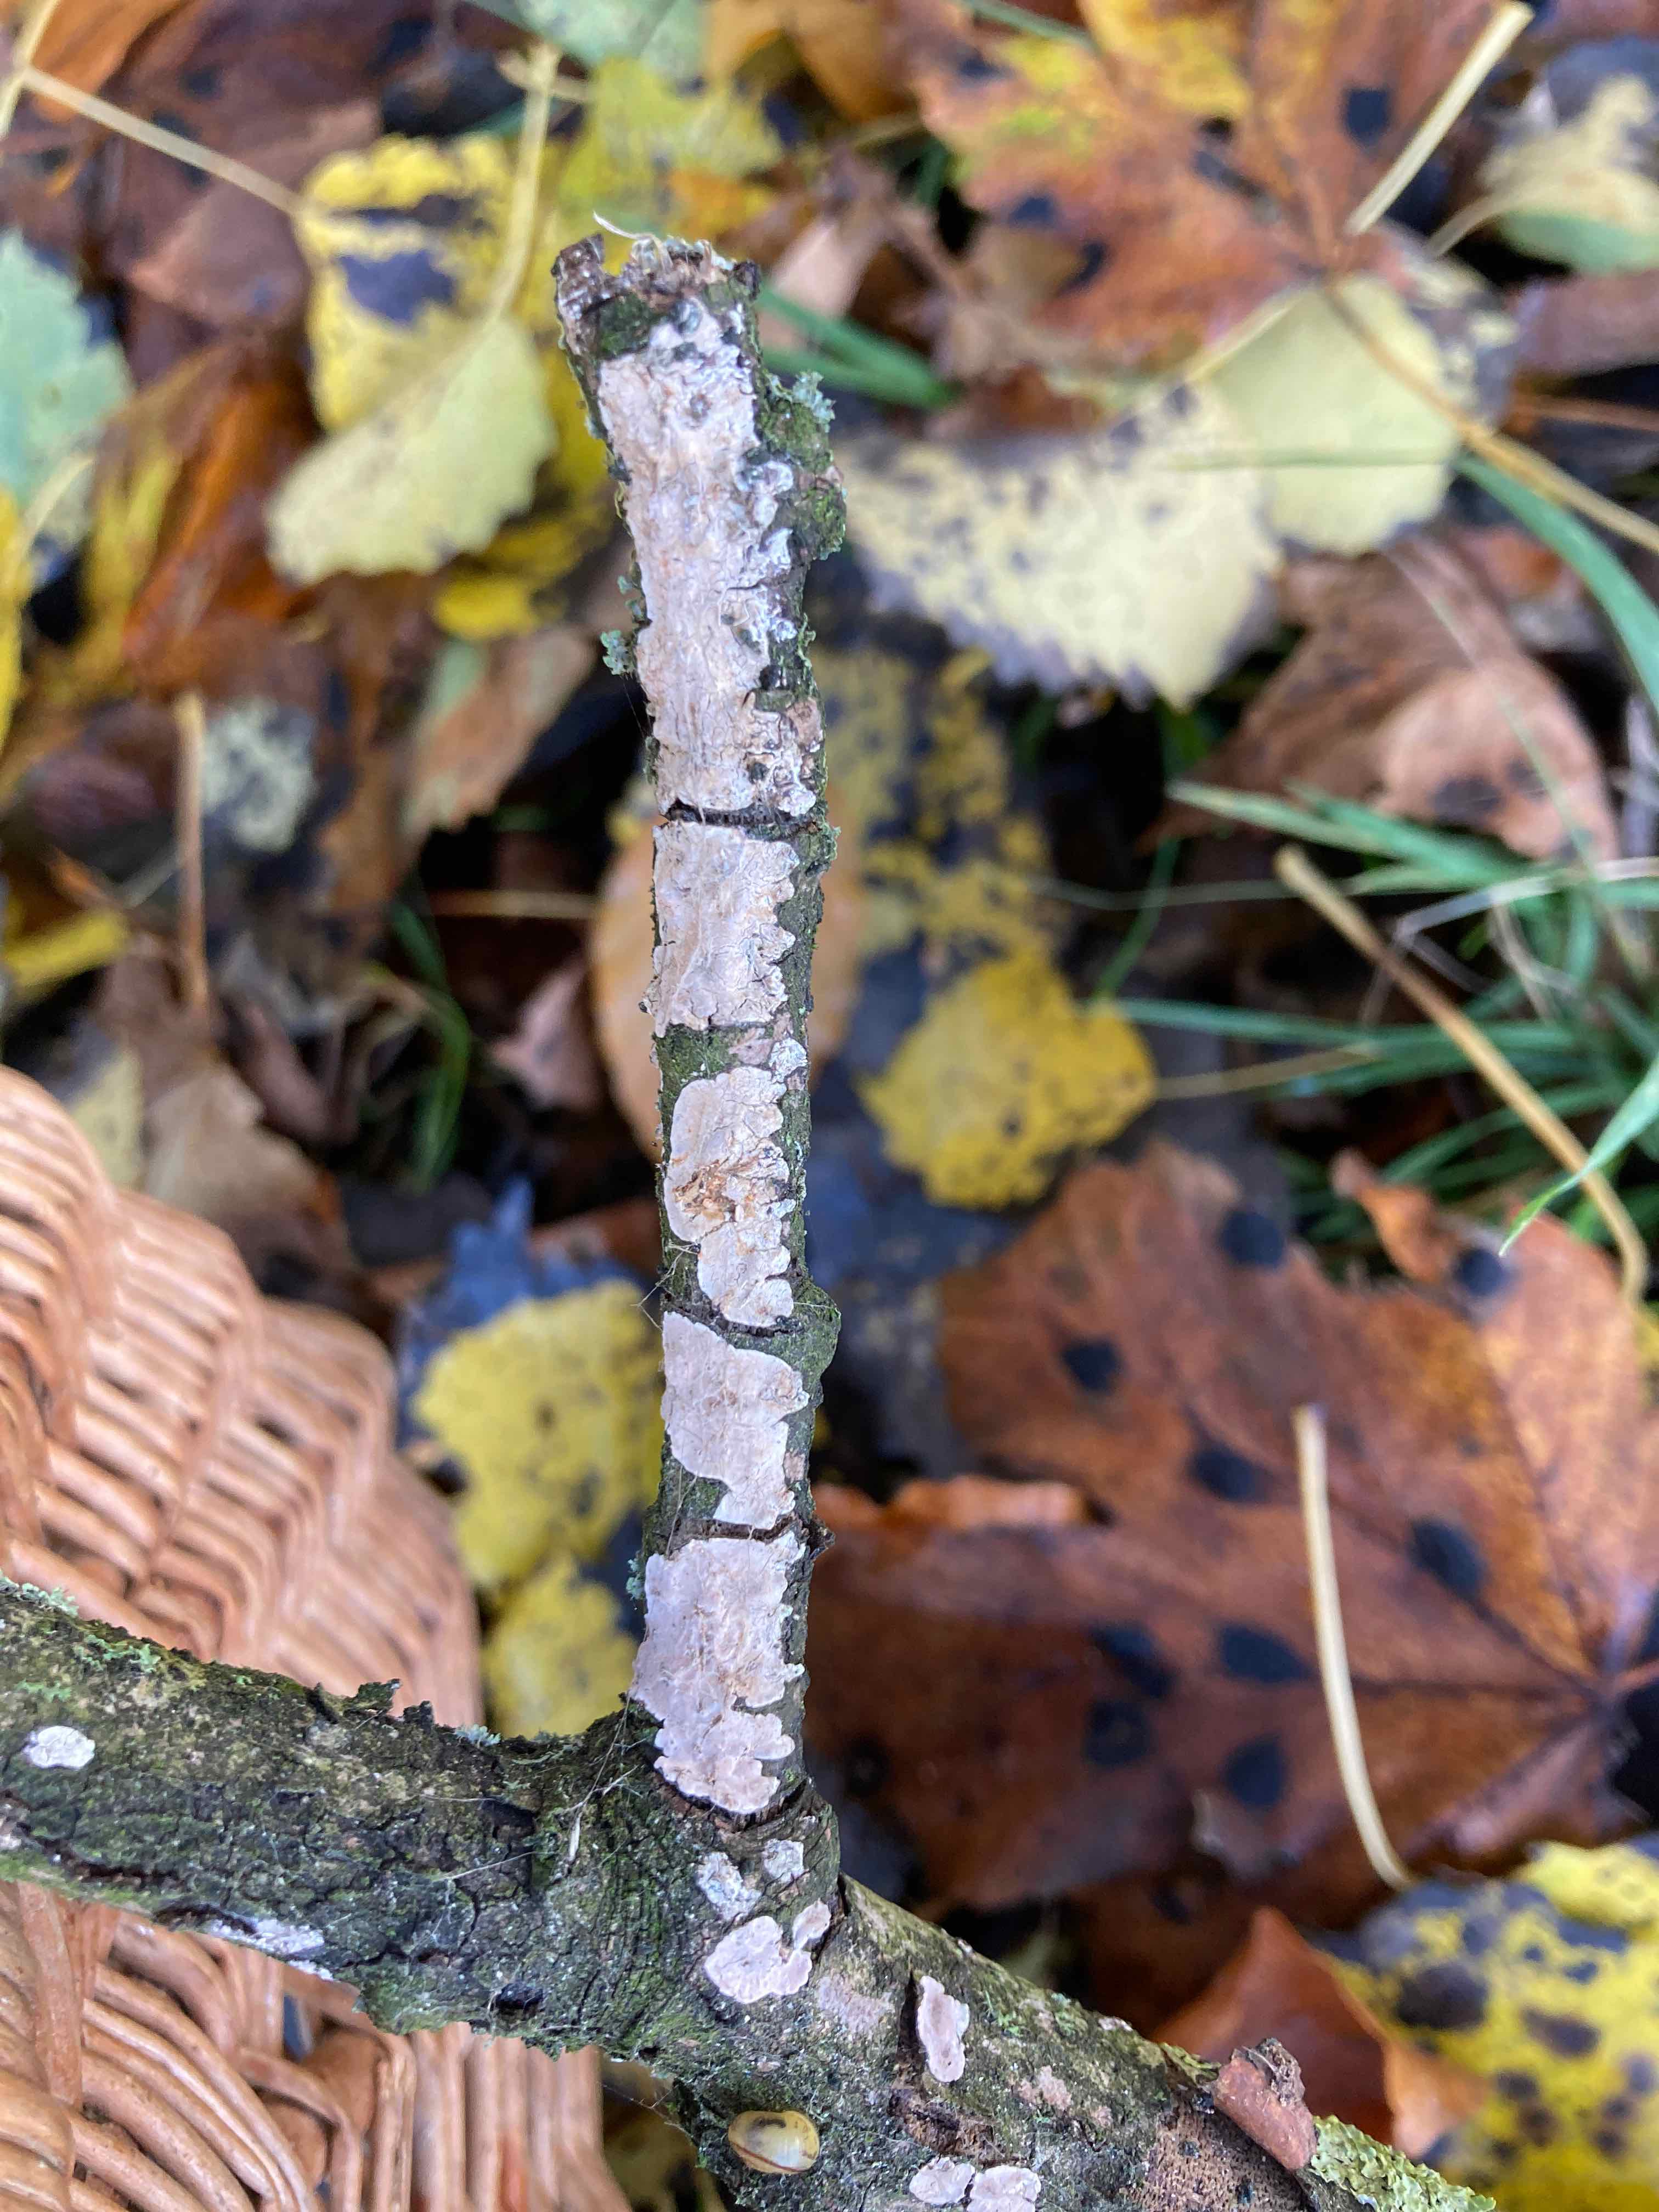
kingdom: Fungi
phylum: Basidiomycota
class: Agaricomycetes
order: Russulales
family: Peniophoraceae
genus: Peniophora
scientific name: Peniophora polygonia
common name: polygon-voksskind
